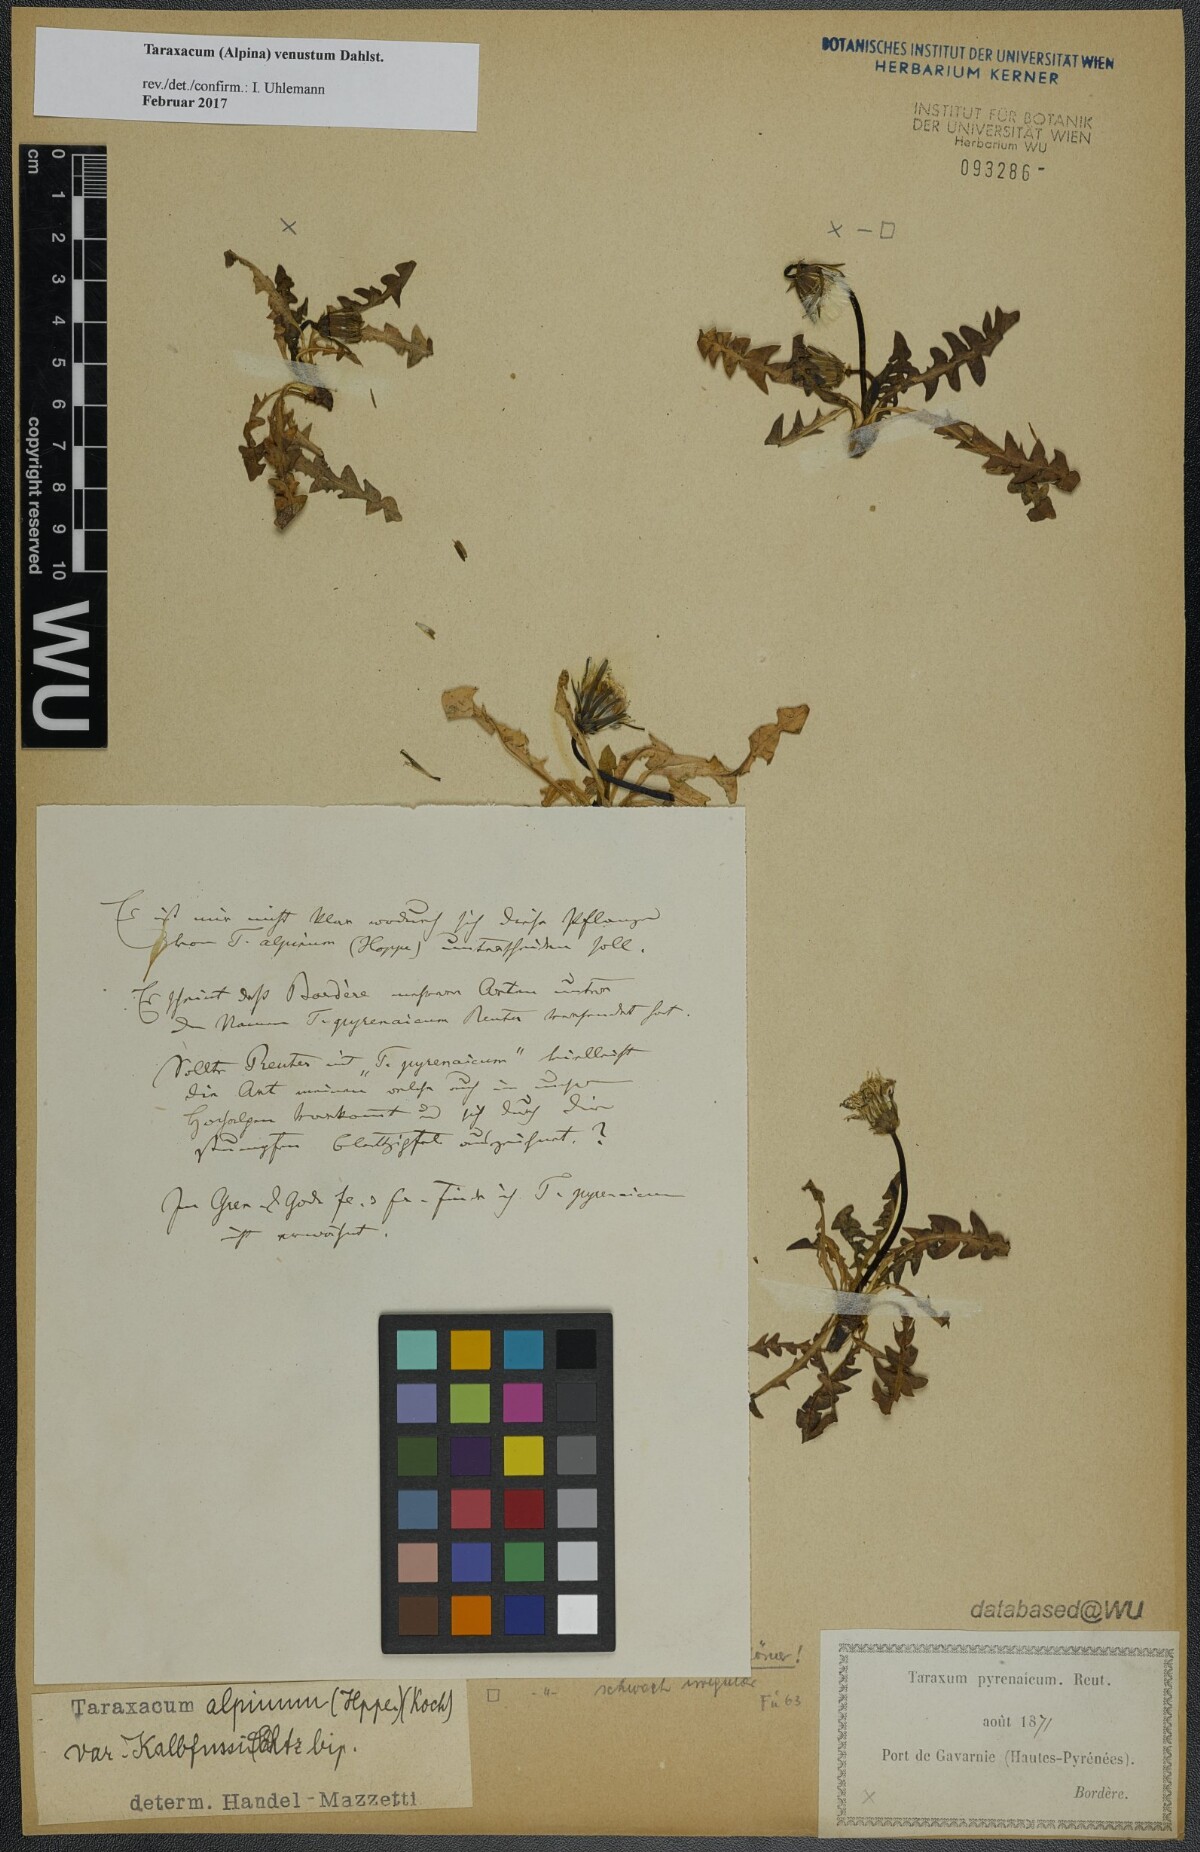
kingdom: Plantae
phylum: Tracheophyta
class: Magnoliopsida
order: Asterales
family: Asteraceae
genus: Taraxacum
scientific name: Taraxacum venustum
